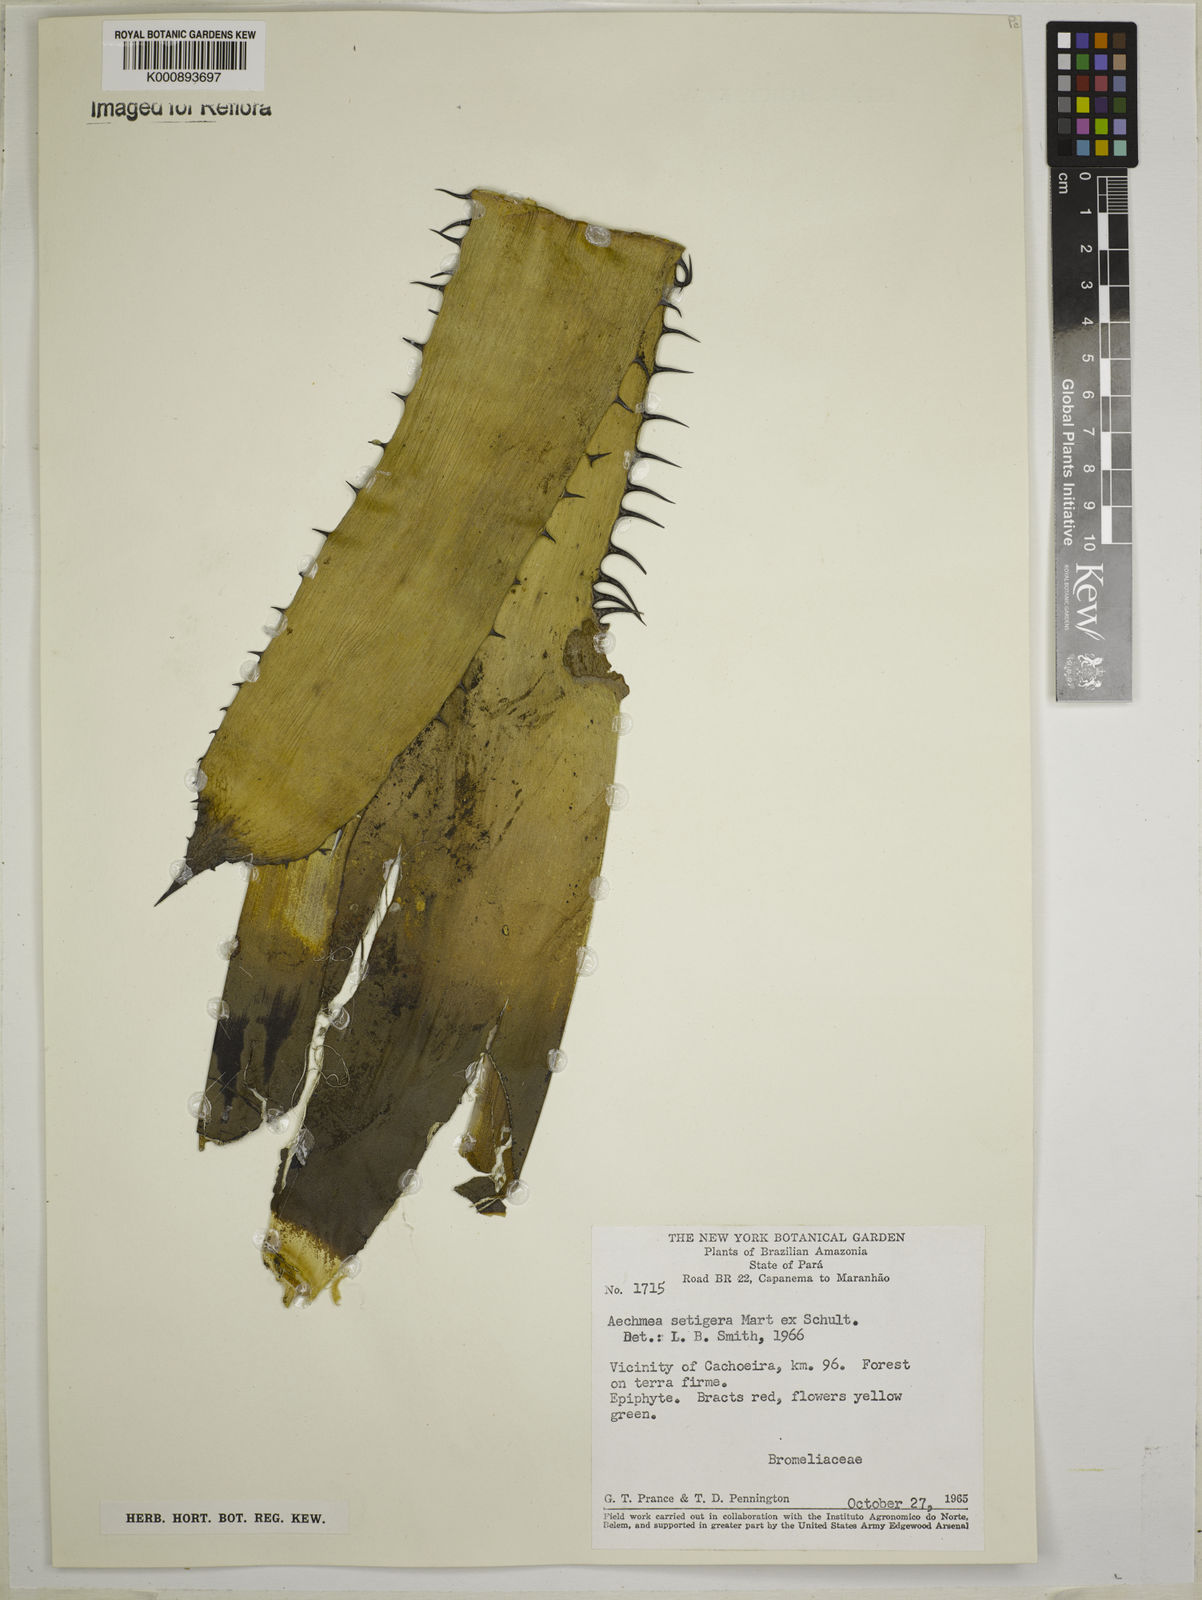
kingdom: Plantae
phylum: Tracheophyta
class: Liliopsida
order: Poales
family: Bromeliaceae
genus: Aechmea
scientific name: Aechmea setigera
